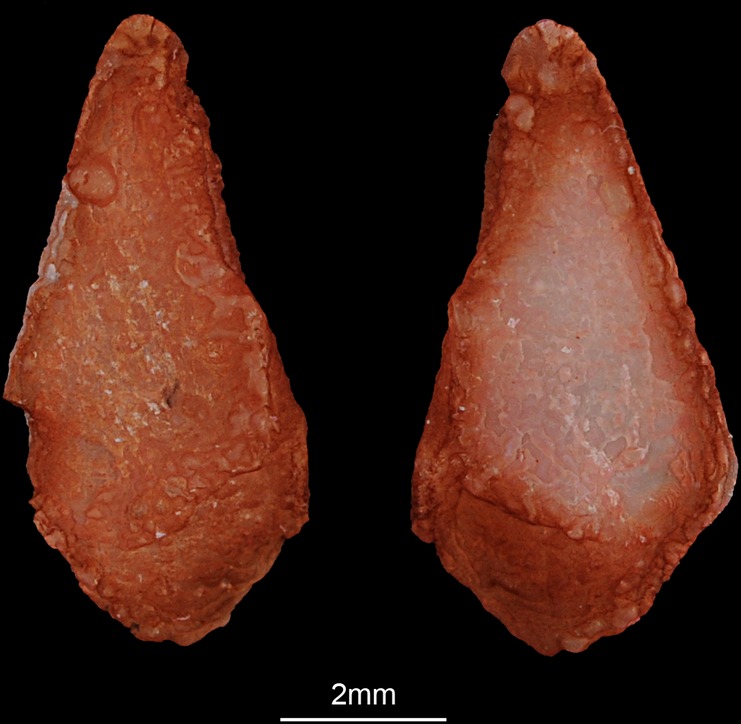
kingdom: Animalia
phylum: Chordata
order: Osteoglossiformes
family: Arapaimidae
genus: Heterotis
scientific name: Heterotis niloticus
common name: African bonytongue
